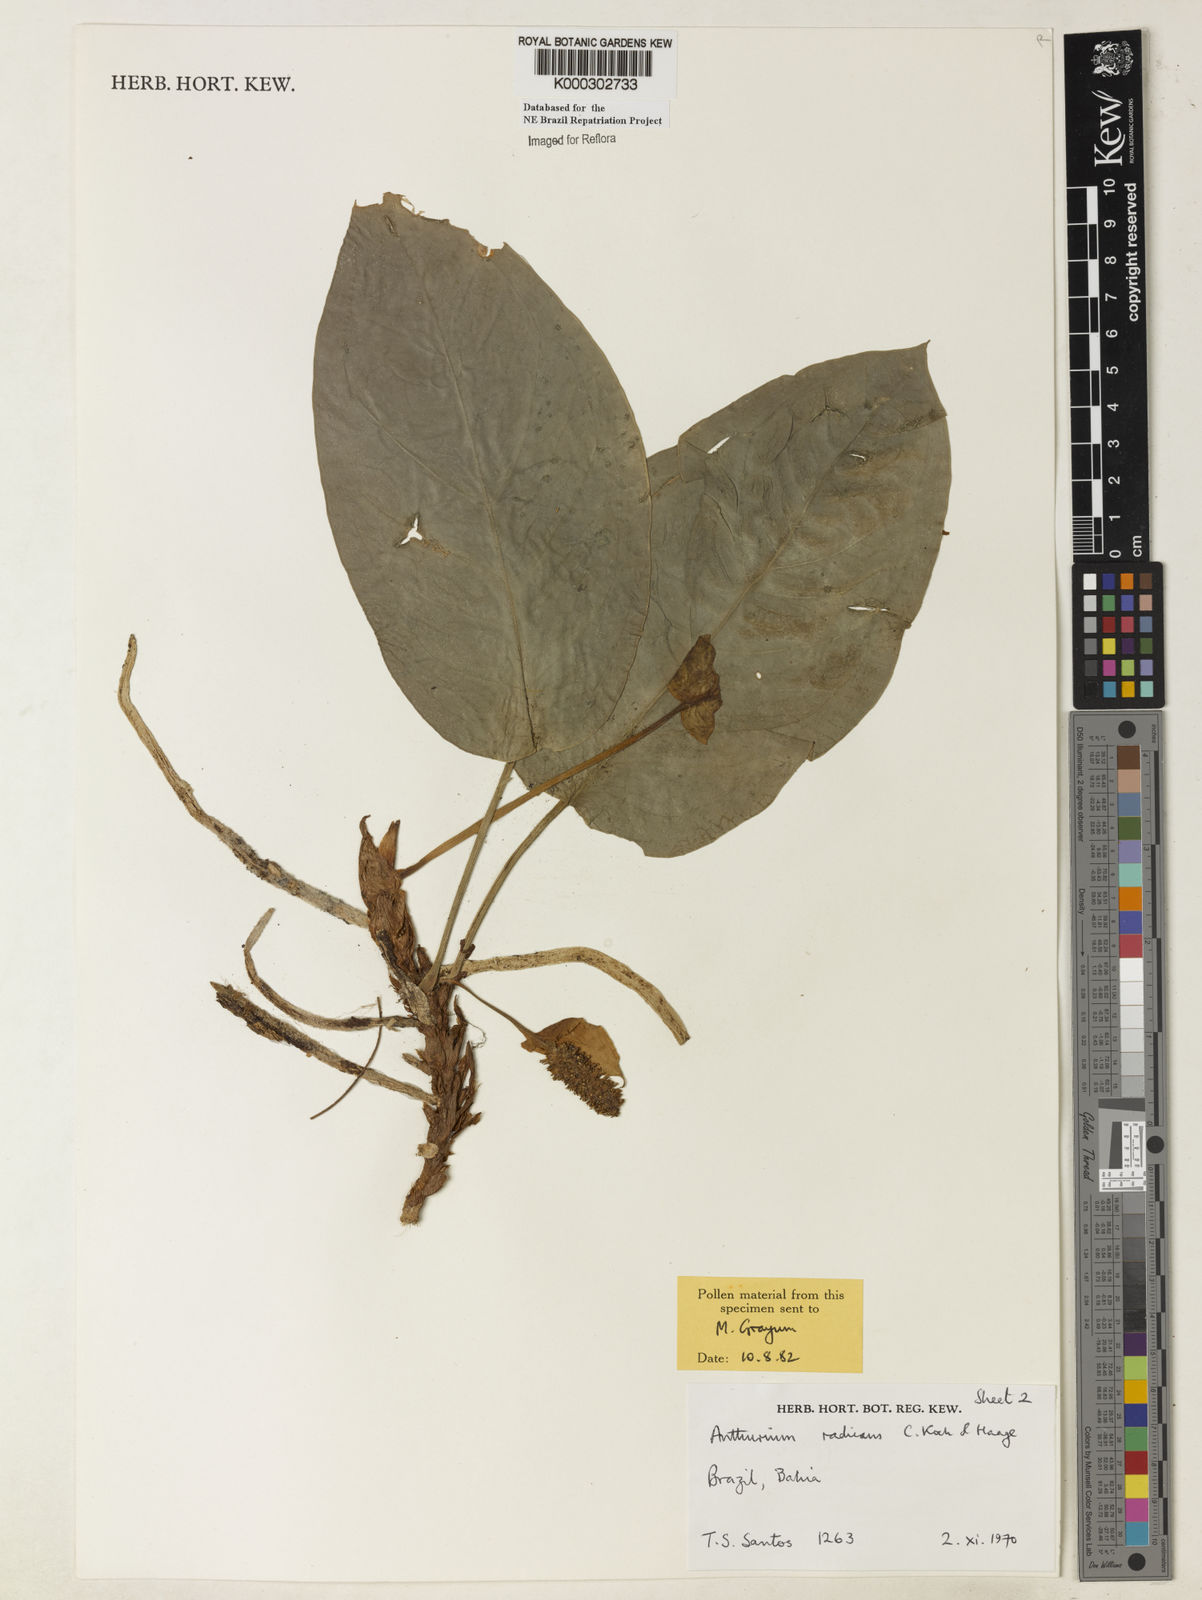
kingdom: Plantae
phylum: Tracheophyta
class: Liliopsida
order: Alismatales
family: Araceae
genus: Anthurium
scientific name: Anthurium radicans
